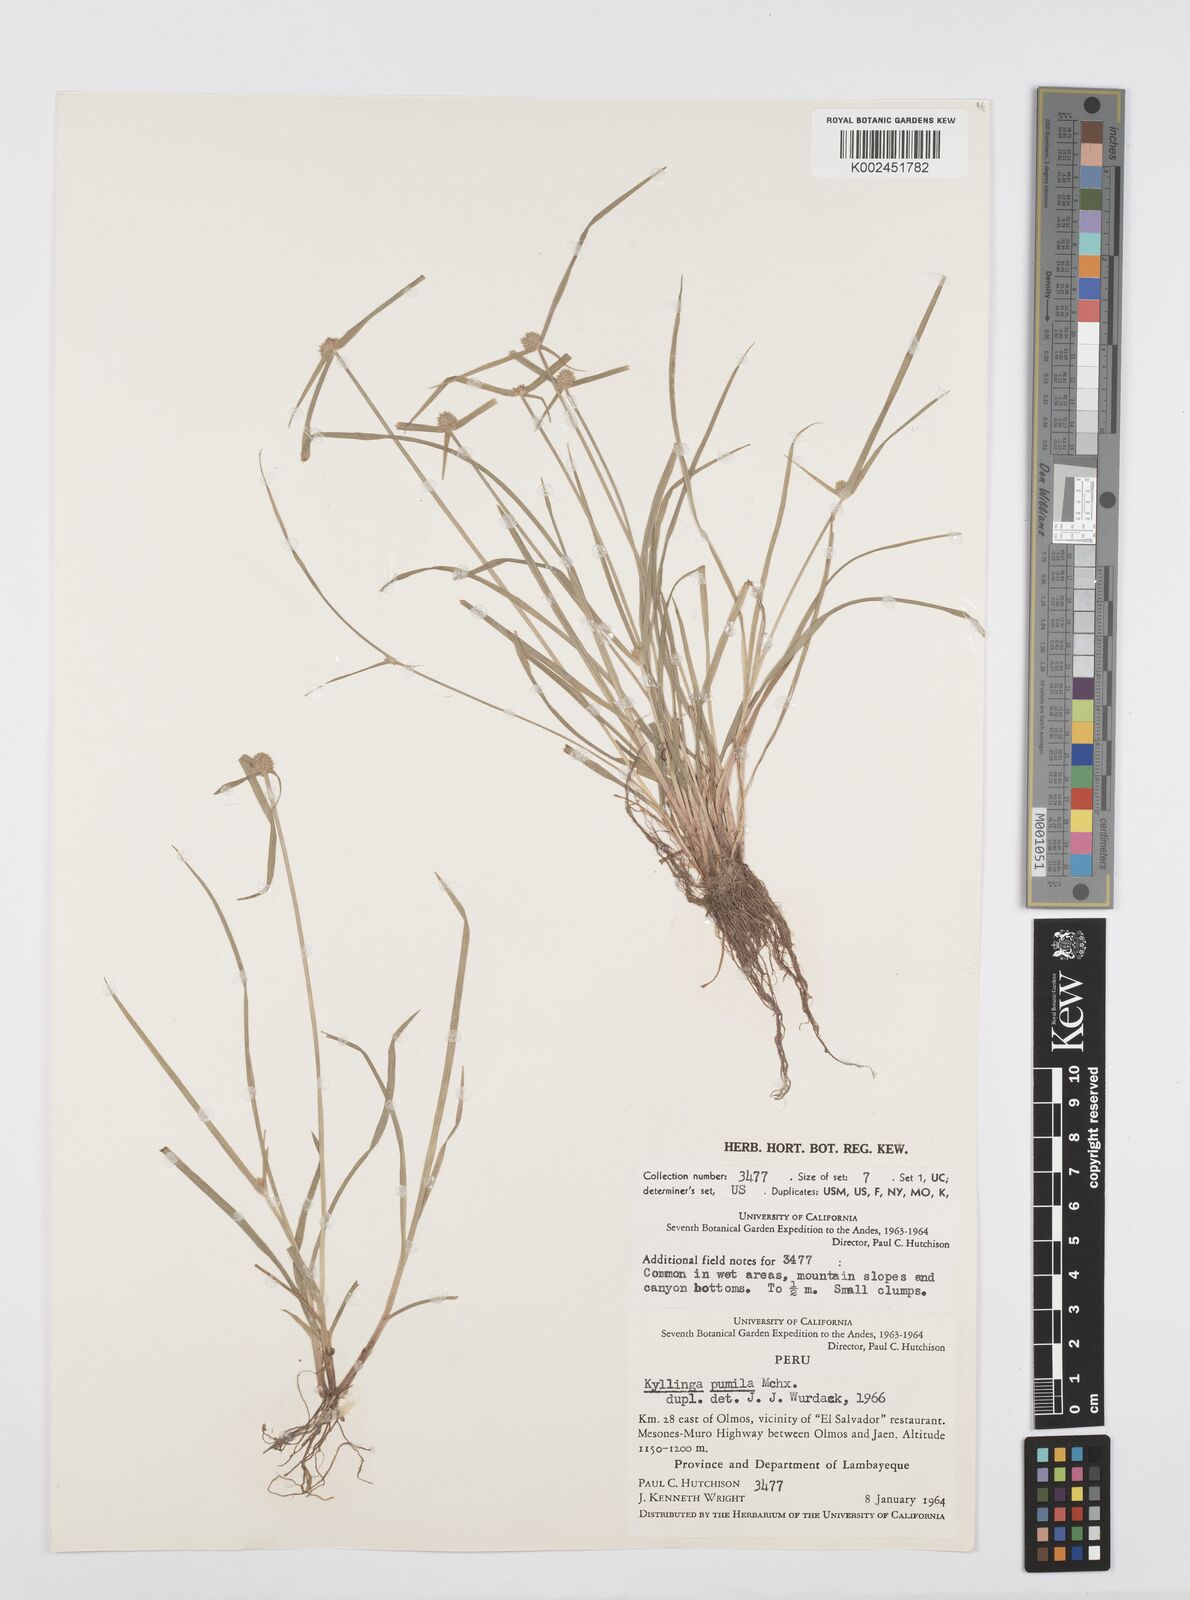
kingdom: Plantae
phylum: Tracheophyta
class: Liliopsida
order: Poales
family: Cyperaceae
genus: Cyperus
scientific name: Cyperus
